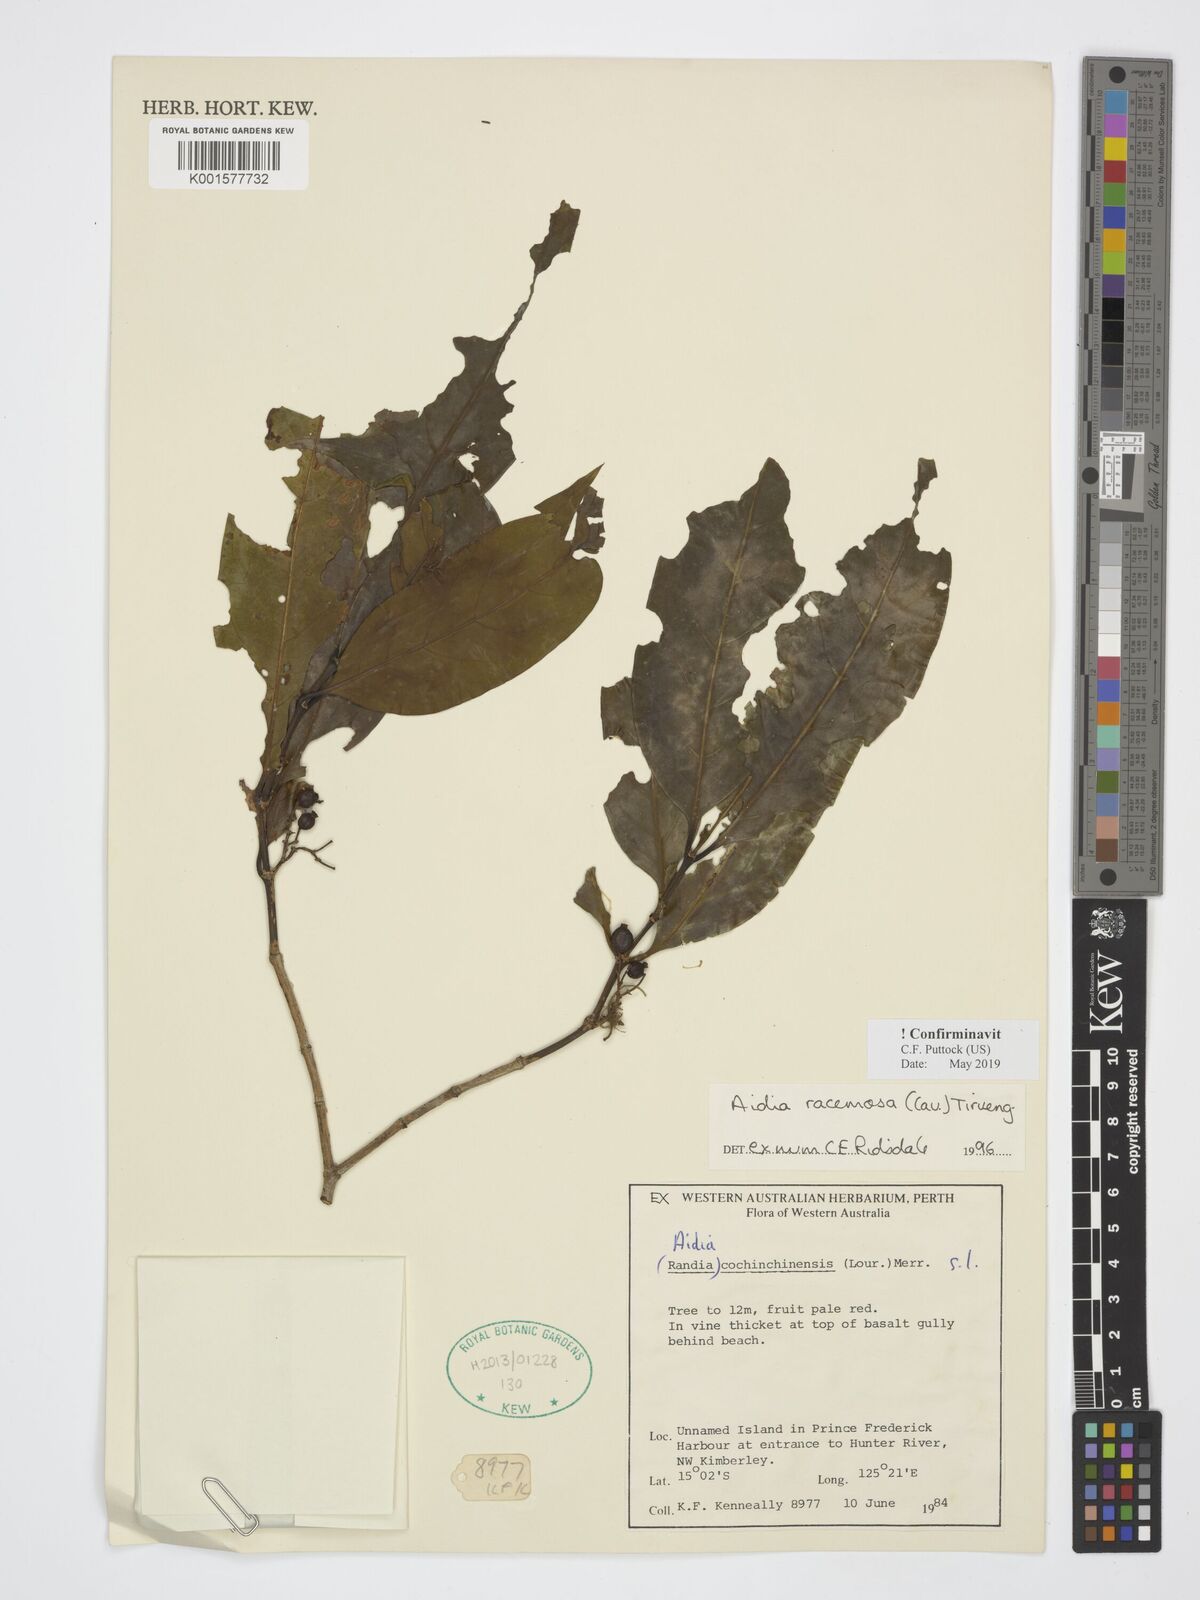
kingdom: Plantae
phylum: Tracheophyta
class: Magnoliopsida
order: Gentianales
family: Rubiaceae
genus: Aidia
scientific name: Aidia racemosa
